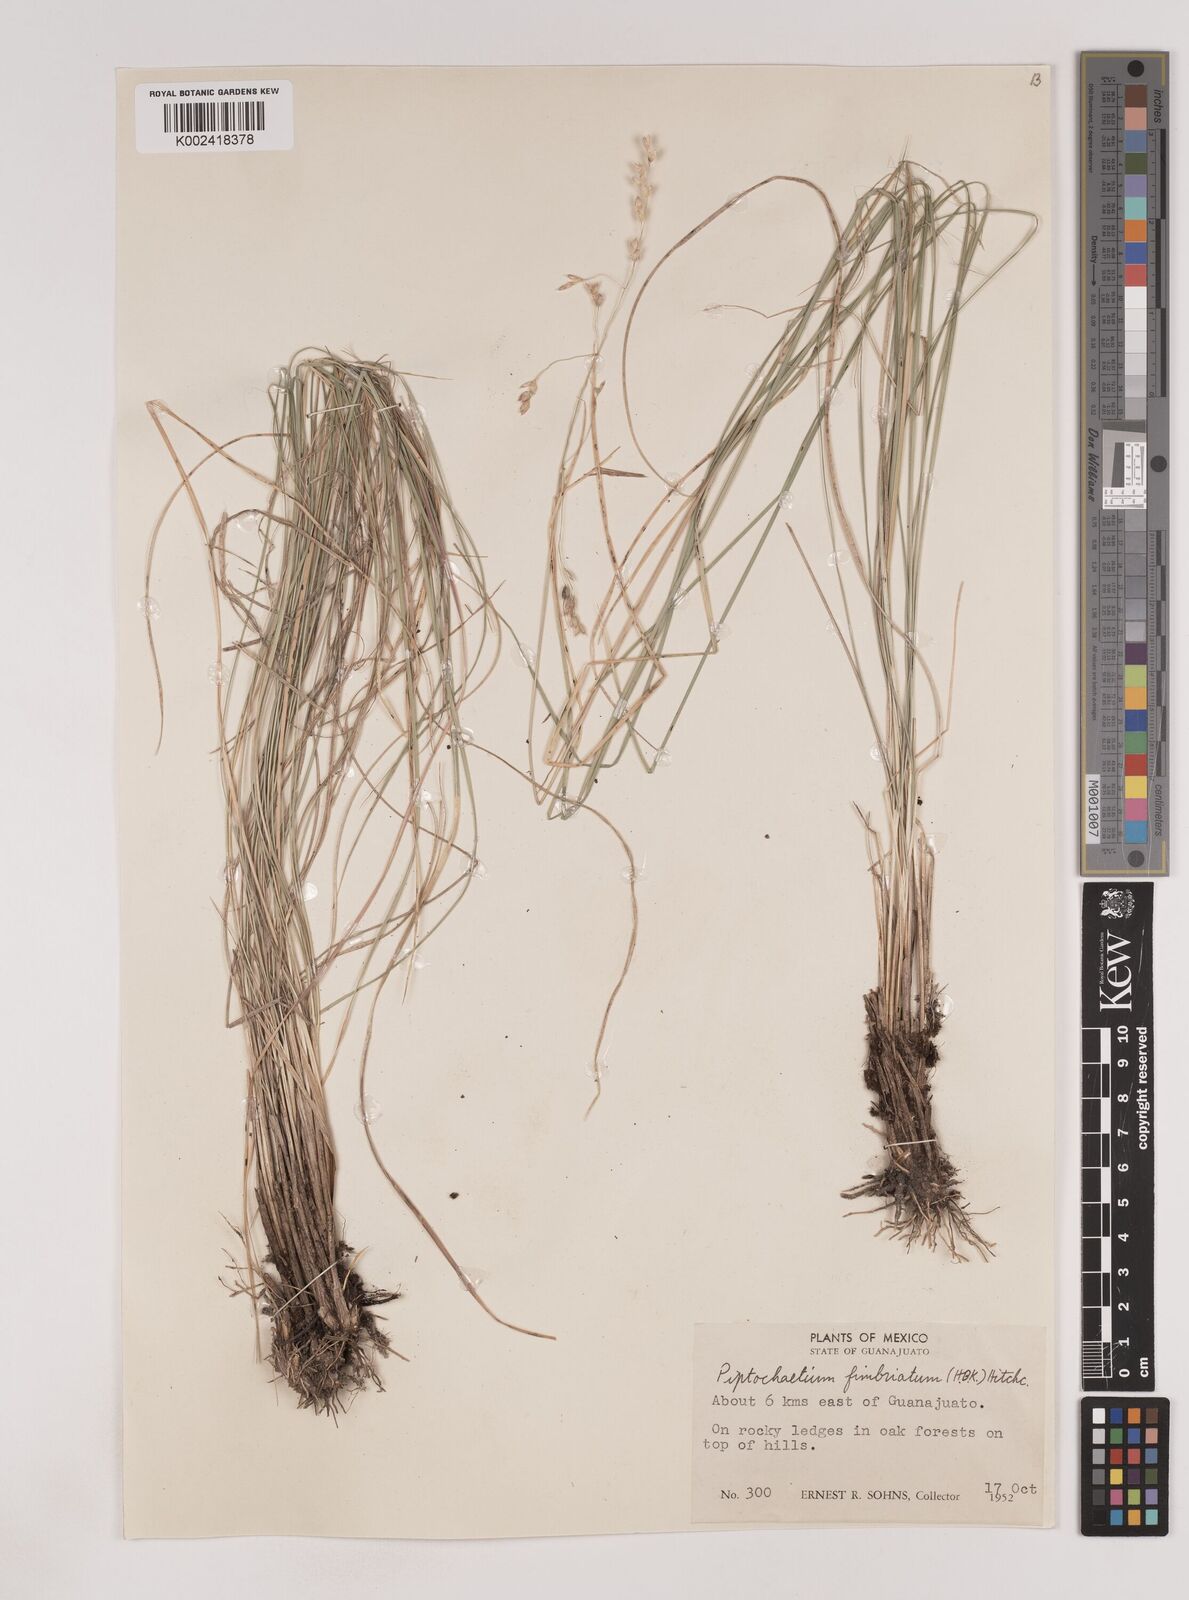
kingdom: Plantae
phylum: Tracheophyta
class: Liliopsida
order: Poales
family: Poaceae
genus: Piptochaetium
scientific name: Piptochaetium fimbriatum
